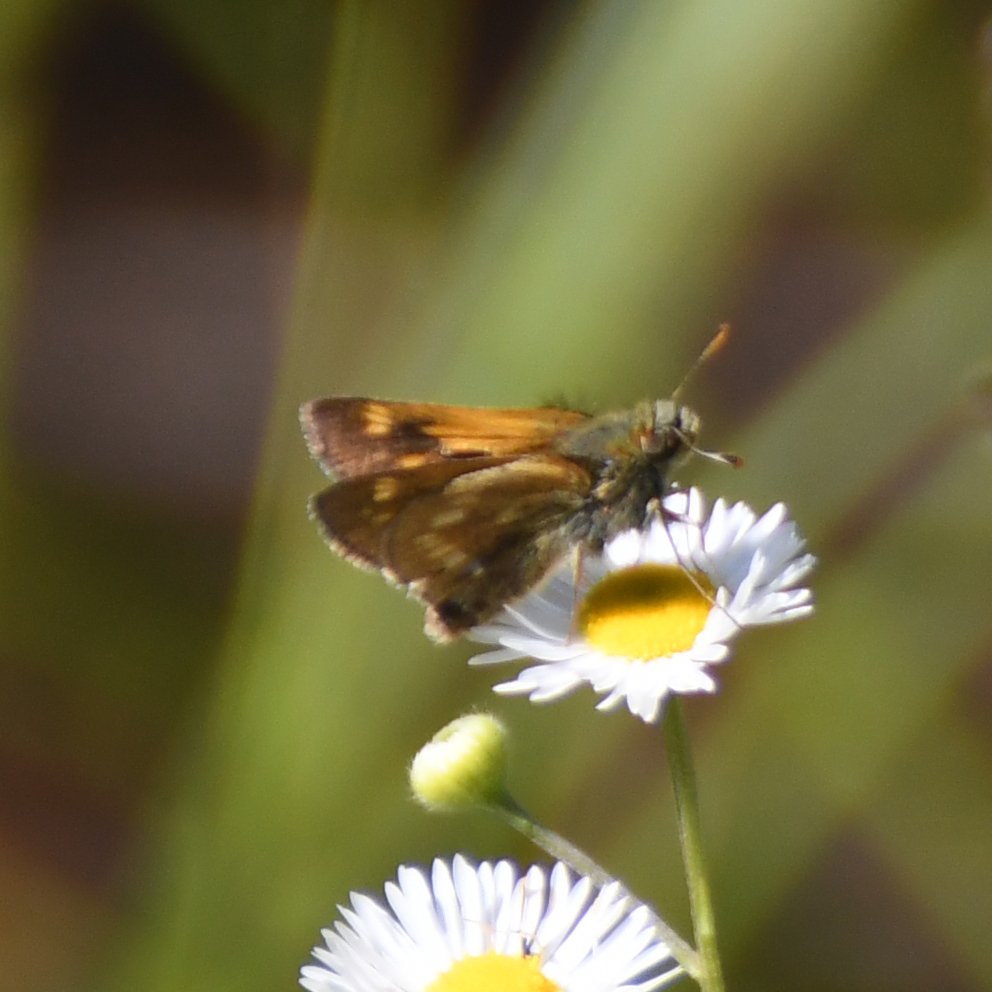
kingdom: Animalia
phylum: Arthropoda
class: Insecta
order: Lepidoptera
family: Hesperiidae
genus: Polites
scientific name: Polites
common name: Long Dash Skipper
